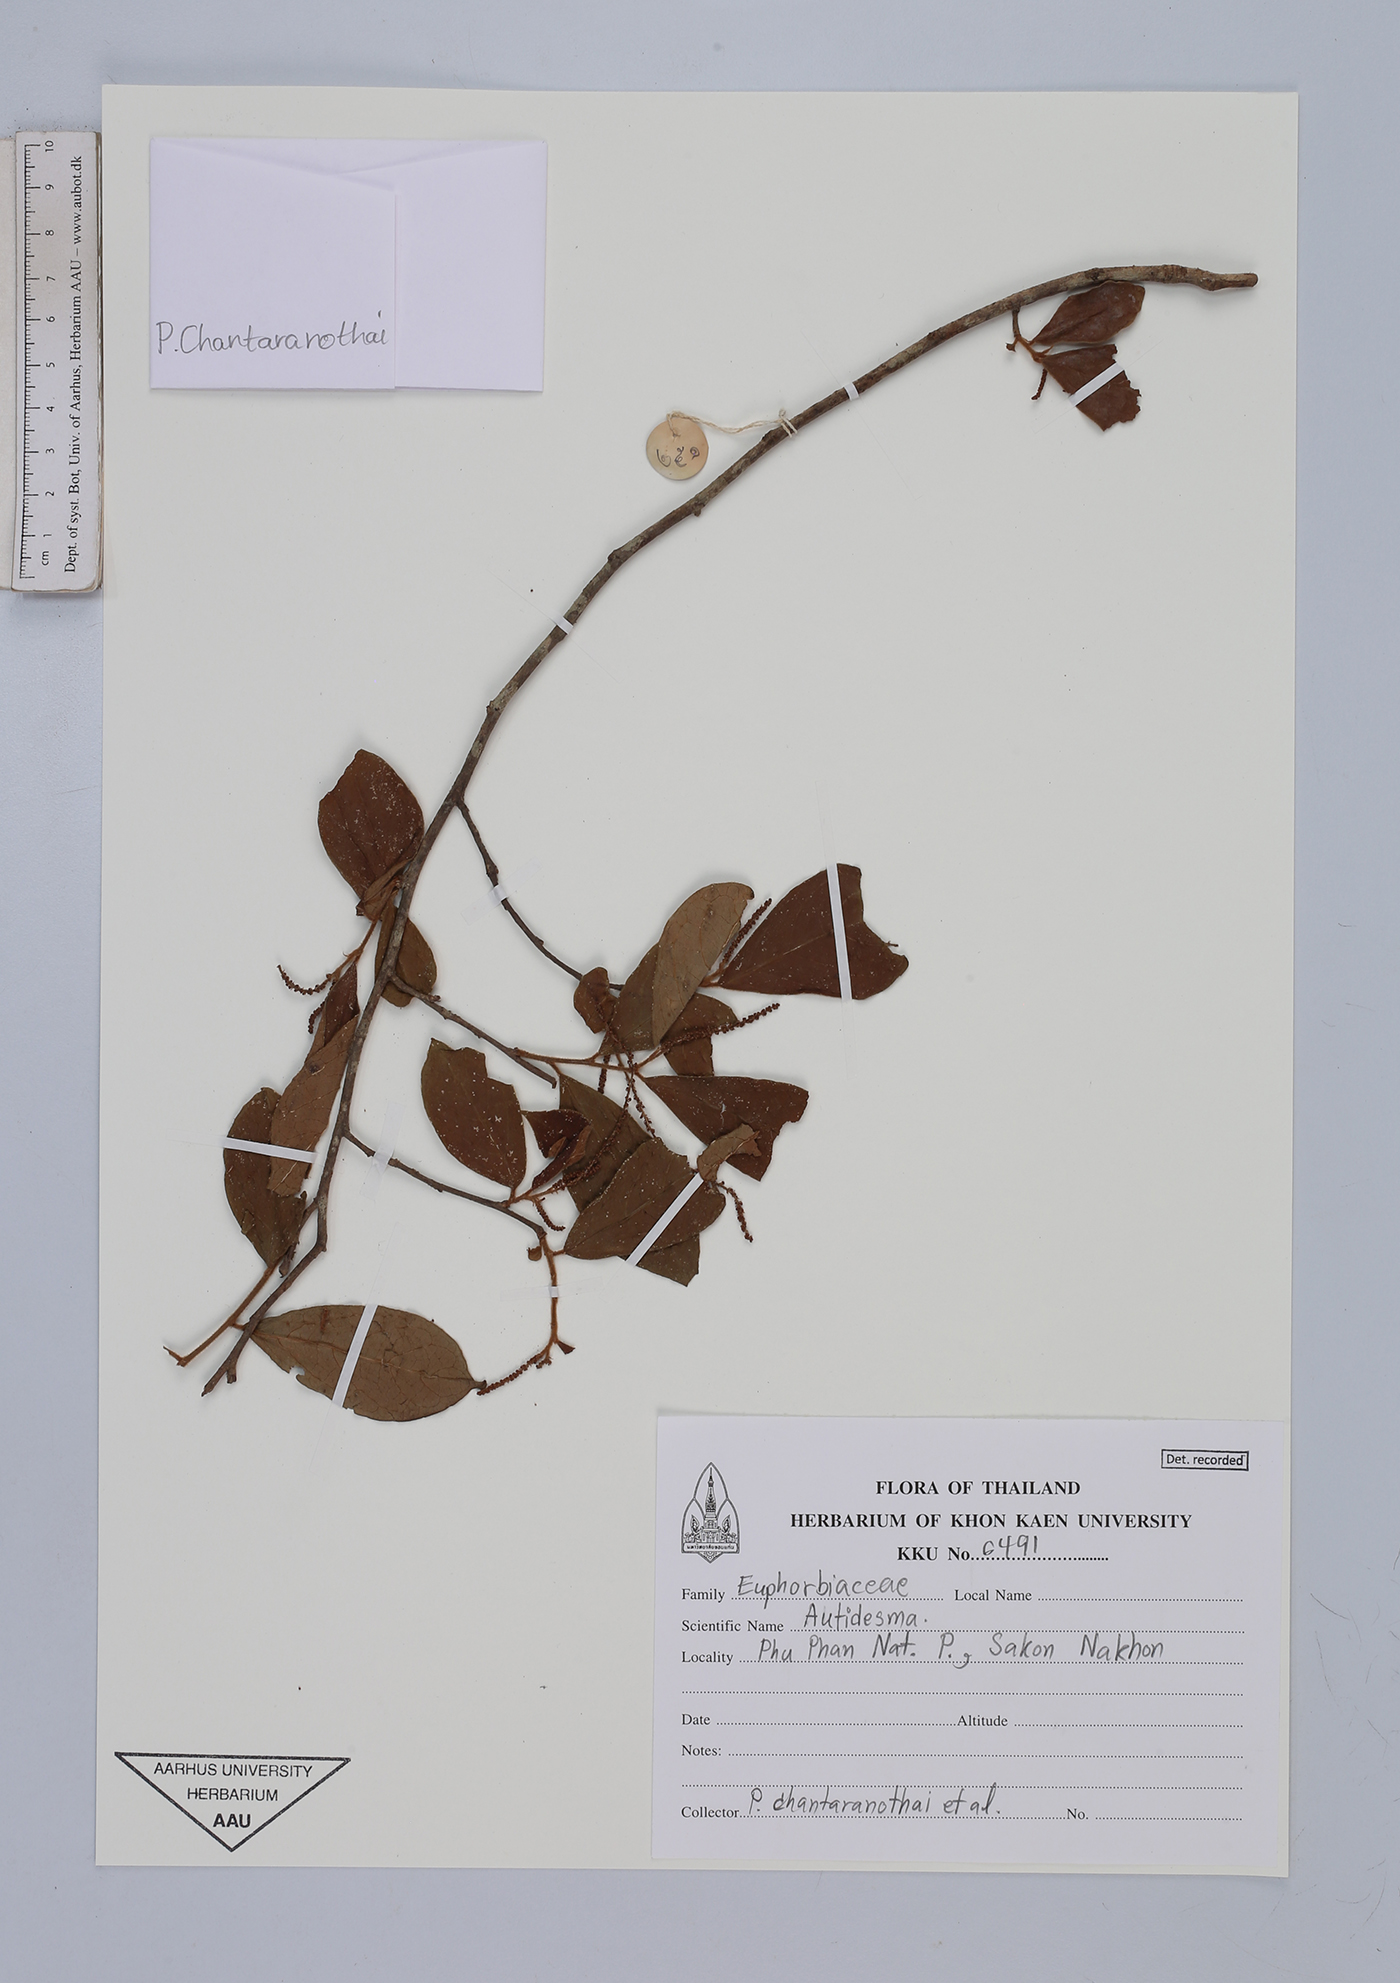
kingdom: Plantae
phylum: Tracheophyta
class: Magnoliopsida
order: Malpighiales
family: Phyllanthaceae
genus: Antidesma
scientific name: Antidesma
